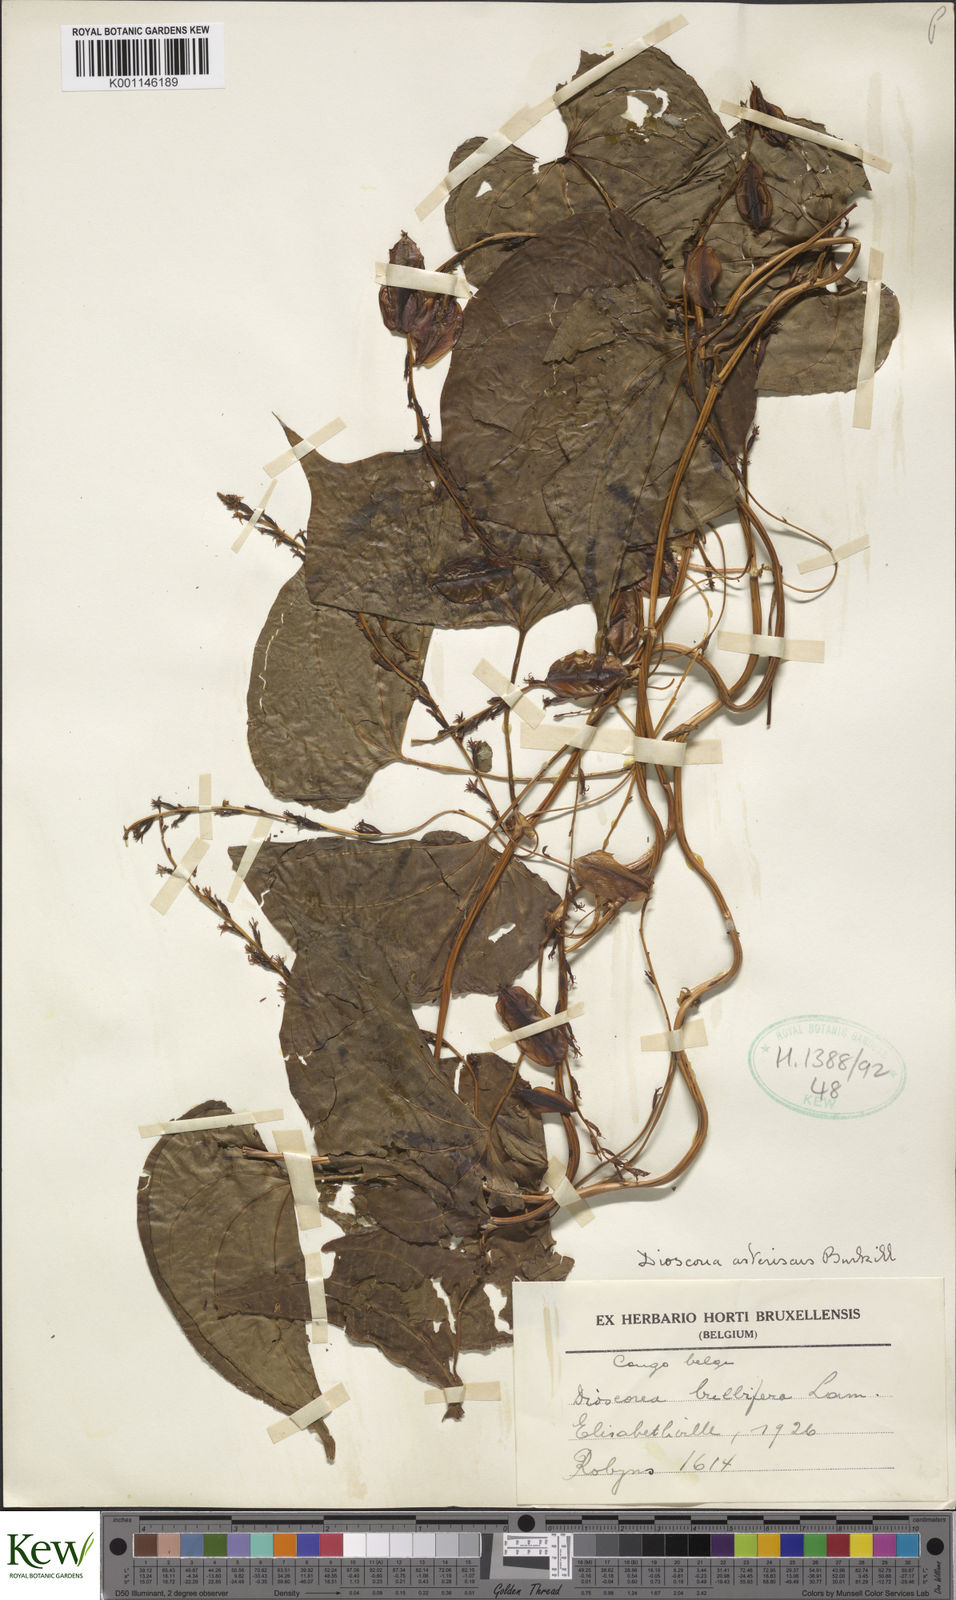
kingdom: Plantae
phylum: Tracheophyta
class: Liliopsida
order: Dioscoreales
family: Dioscoreaceae
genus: Dioscorea
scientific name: Dioscorea asteriscus
